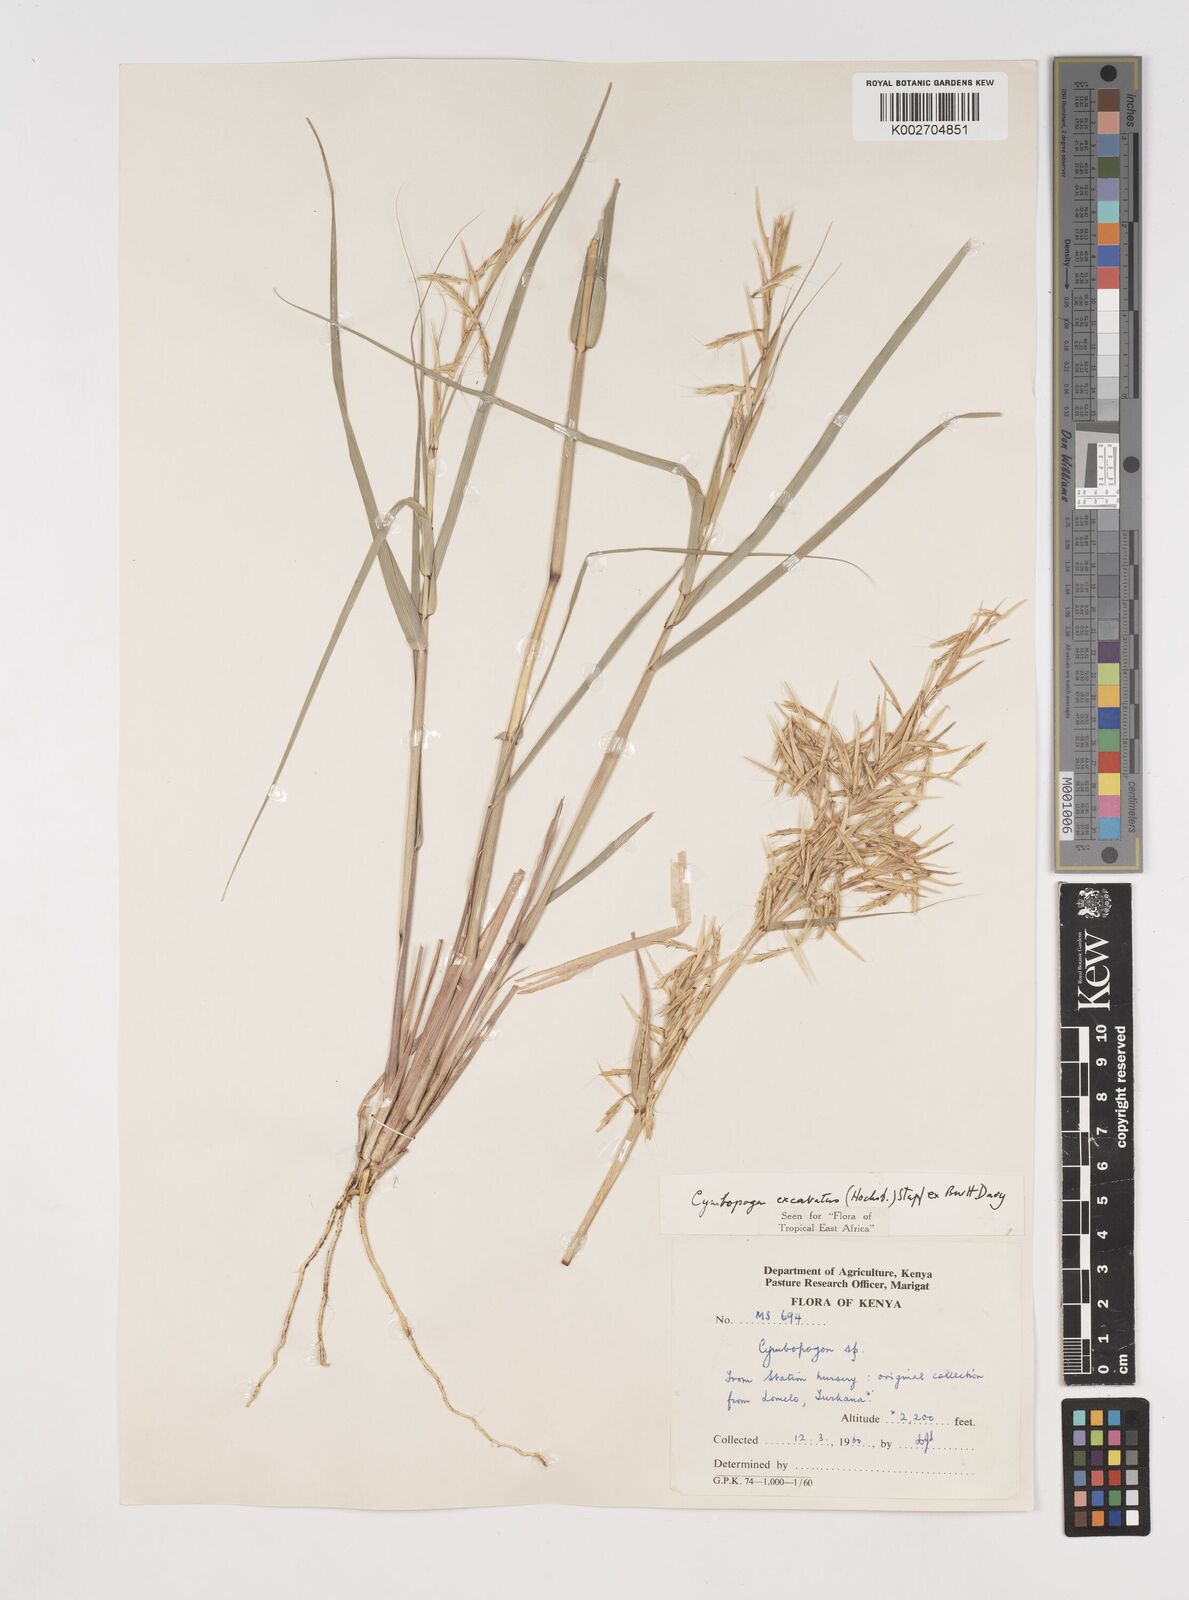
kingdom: Plantae
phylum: Tracheophyta
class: Liliopsida
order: Poales
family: Poaceae
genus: Cymbopogon
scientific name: Cymbopogon caesius
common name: Kachi grass
